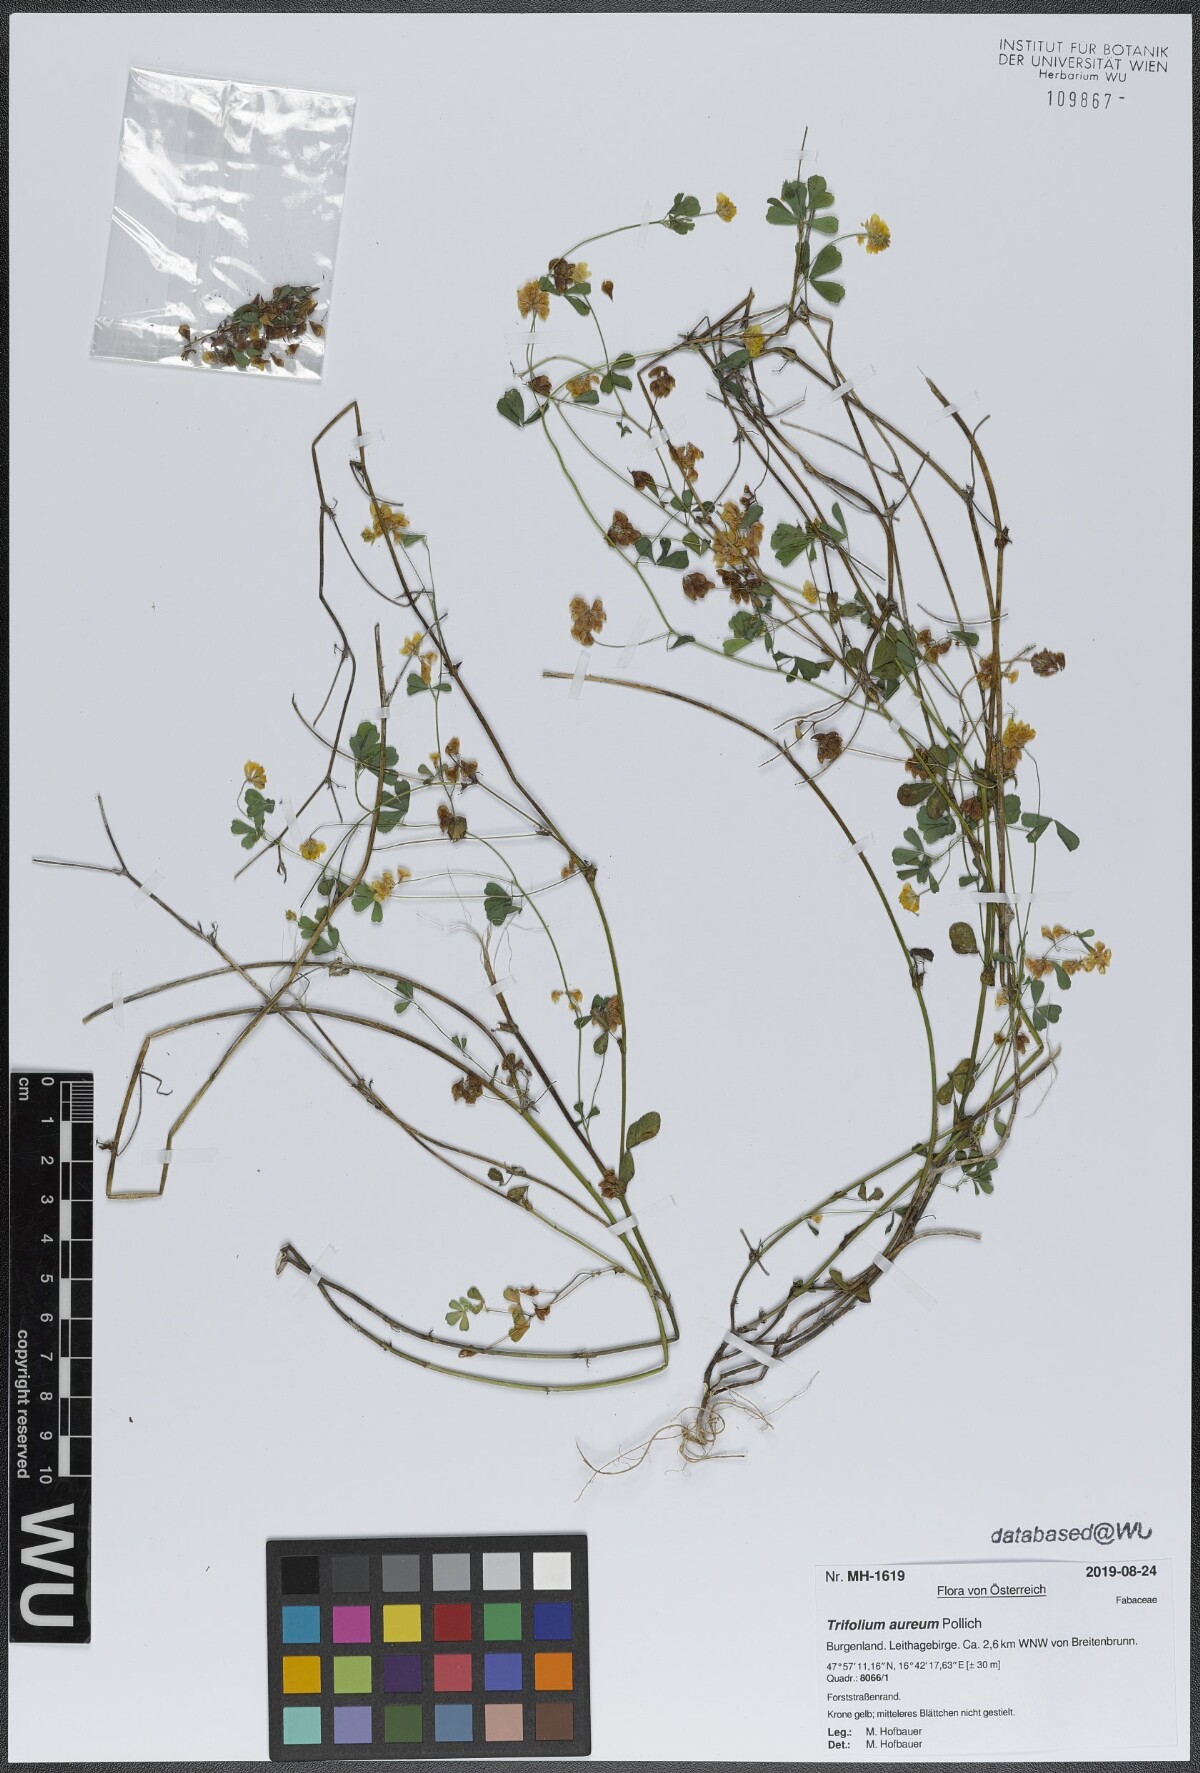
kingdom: Plantae
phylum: Tracheophyta
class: Magnoliopsida
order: Fabales
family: Fabaceae
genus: Trifolium
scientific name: Trifolium aureum
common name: Golden clover
